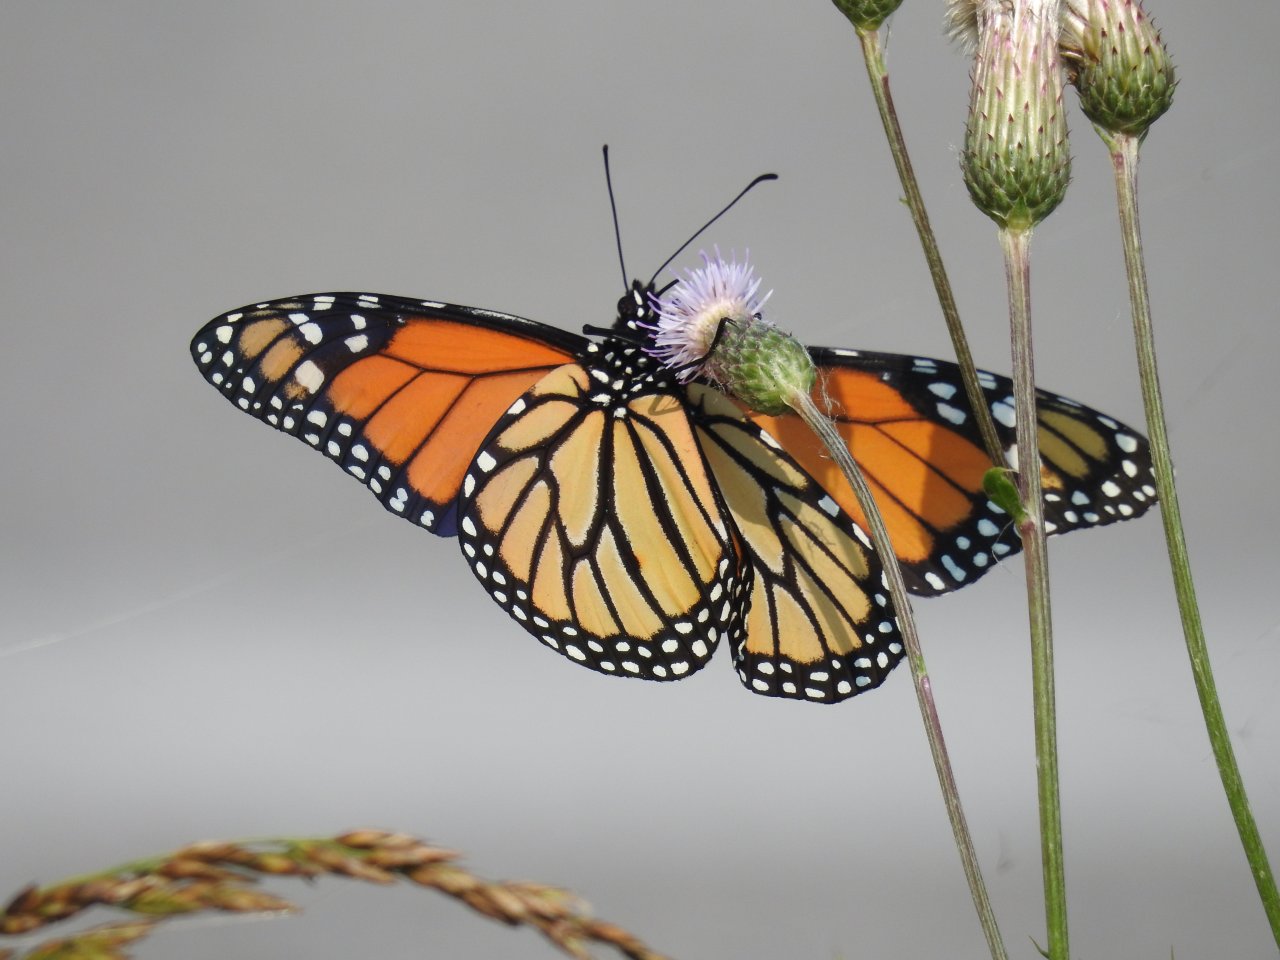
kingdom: Animalia
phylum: Arthropoda
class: Insecta
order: Lepidoptera
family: Nymphalidae
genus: Danaus
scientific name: Danaus plexippus
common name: Monarch
